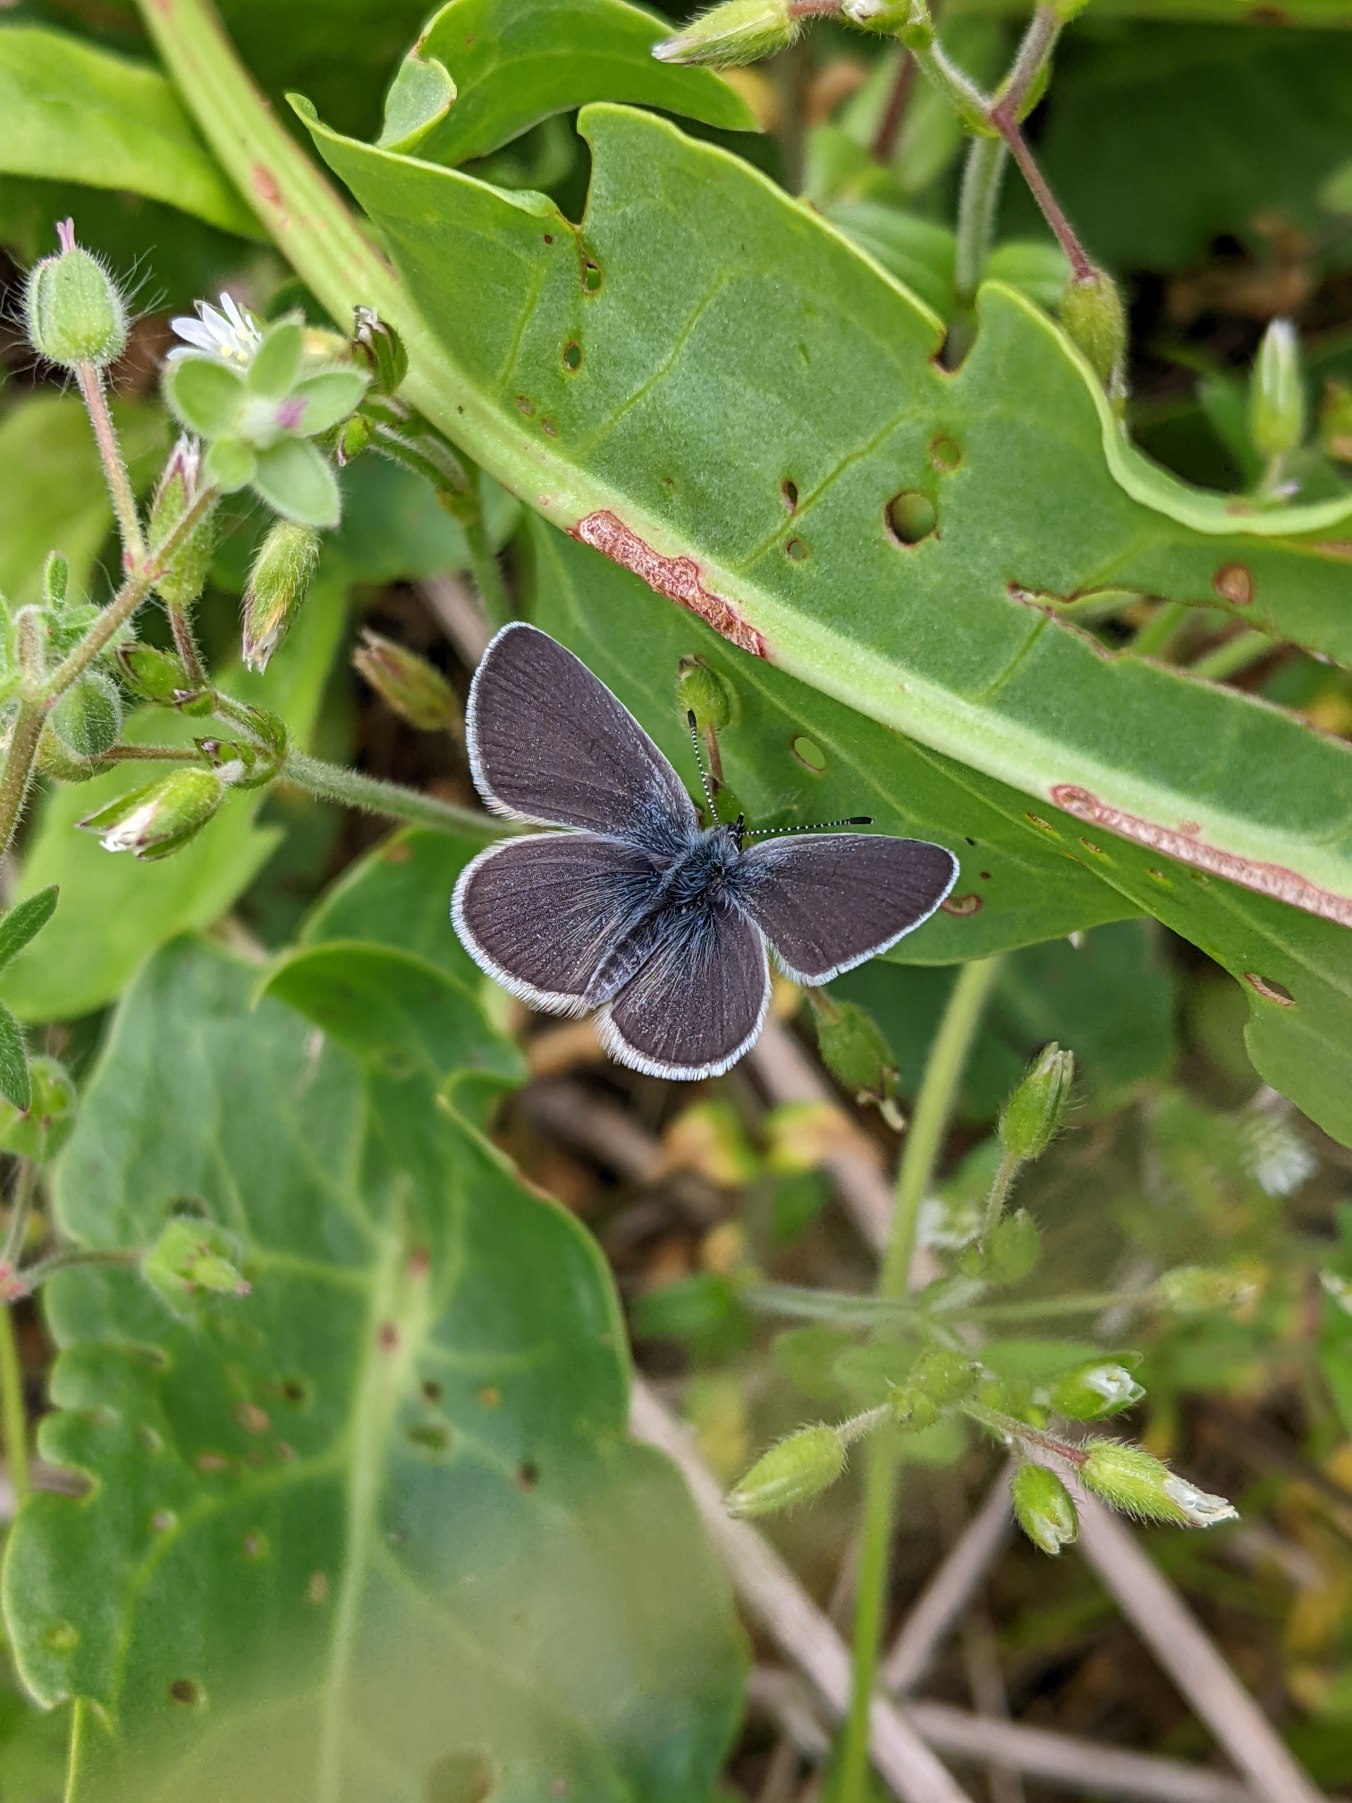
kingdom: Animalia
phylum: Arthropoda
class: Insecta
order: Lepidoptera
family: Lycaenidae
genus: Cupido
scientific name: Cupido minimus
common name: Dværgblåfugl
